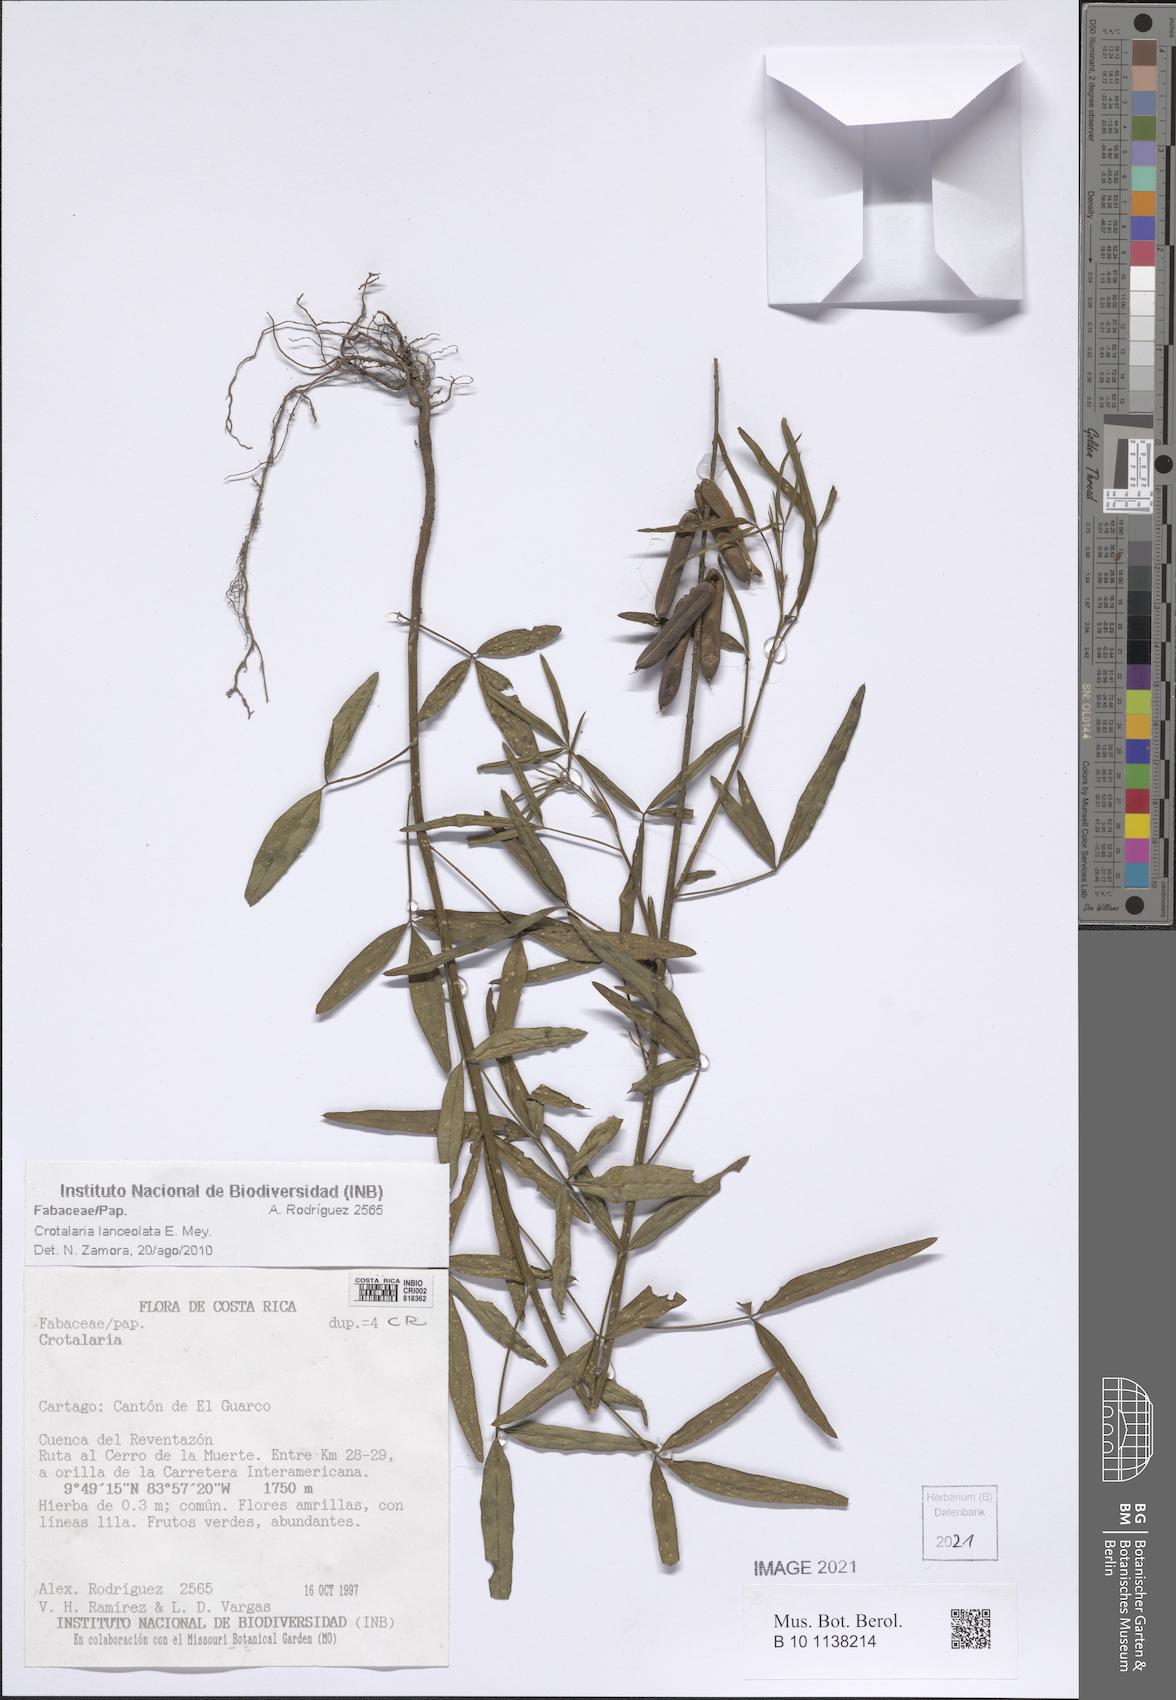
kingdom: Plantae
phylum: Tracheophyta
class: Magnoliopsida
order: Fabales
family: Fabaceae
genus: Crotalaria
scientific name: Crotalaria
